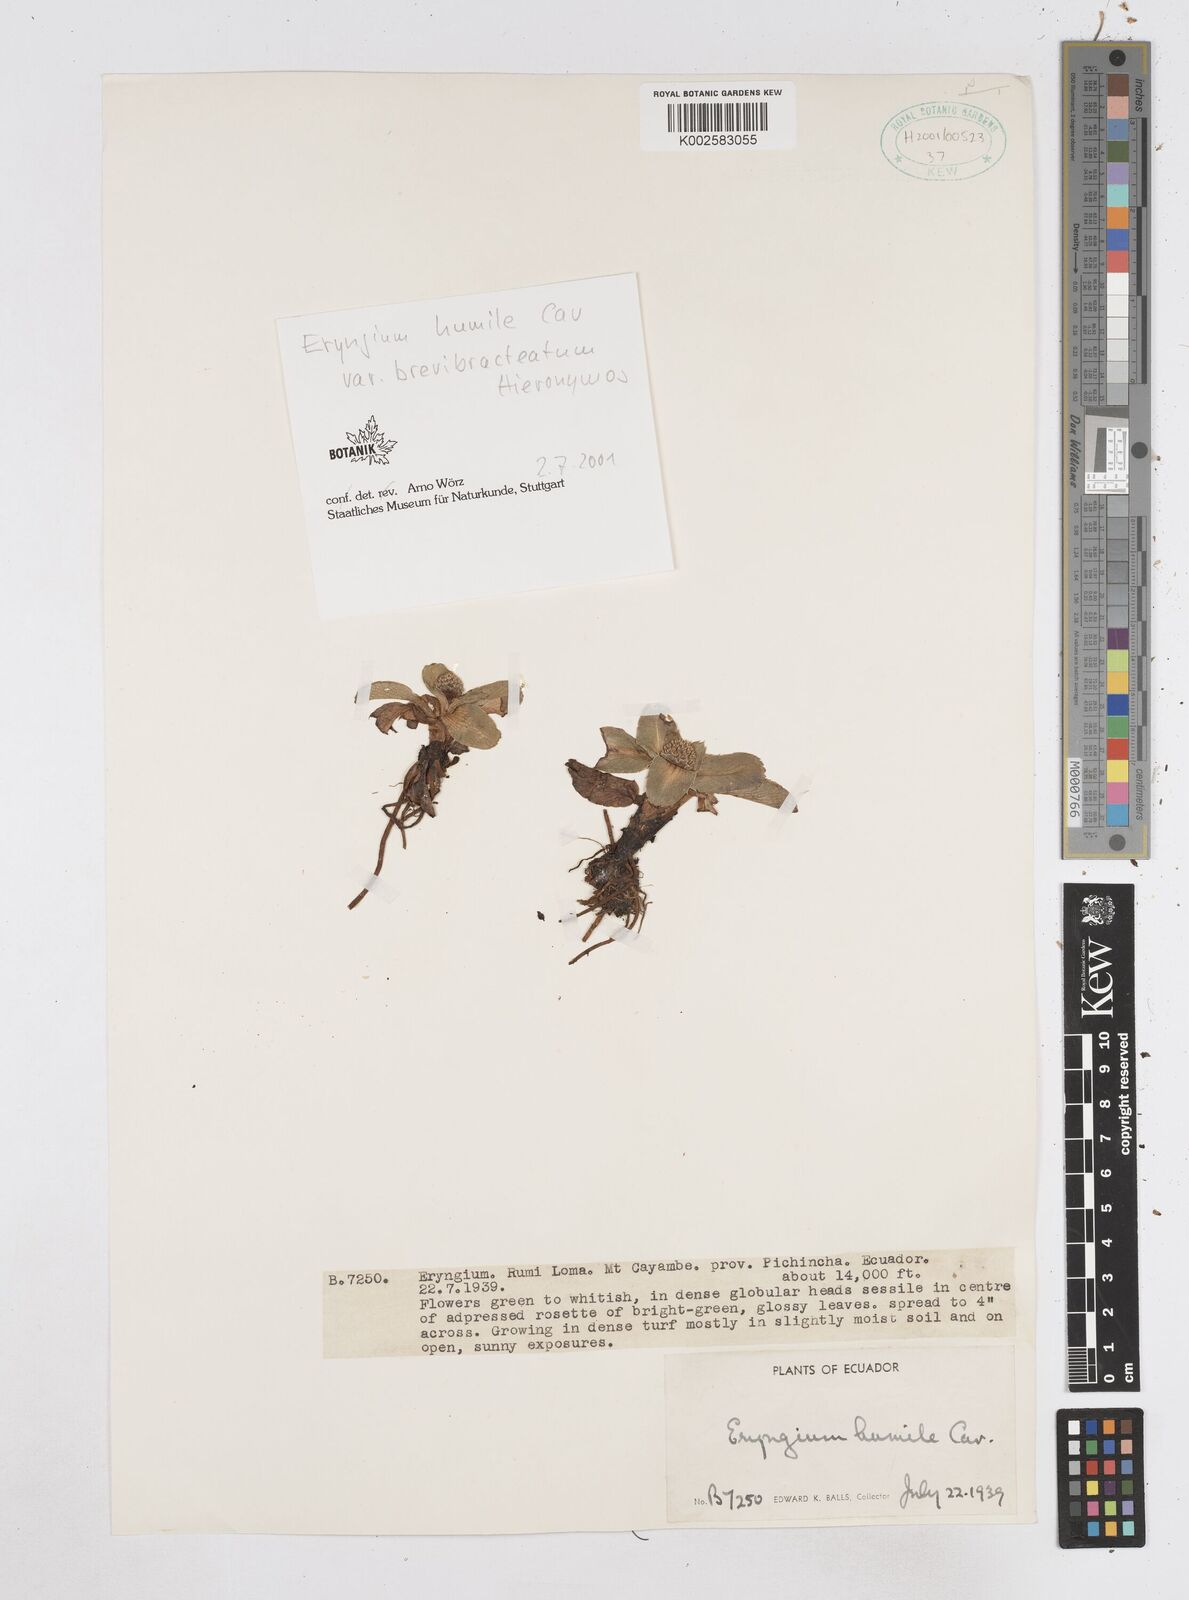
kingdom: Plantae
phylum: Tracheophyta
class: Magnoliopsida
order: Apiales
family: Apiaceae
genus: Eryngium
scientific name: Eryngium humile
